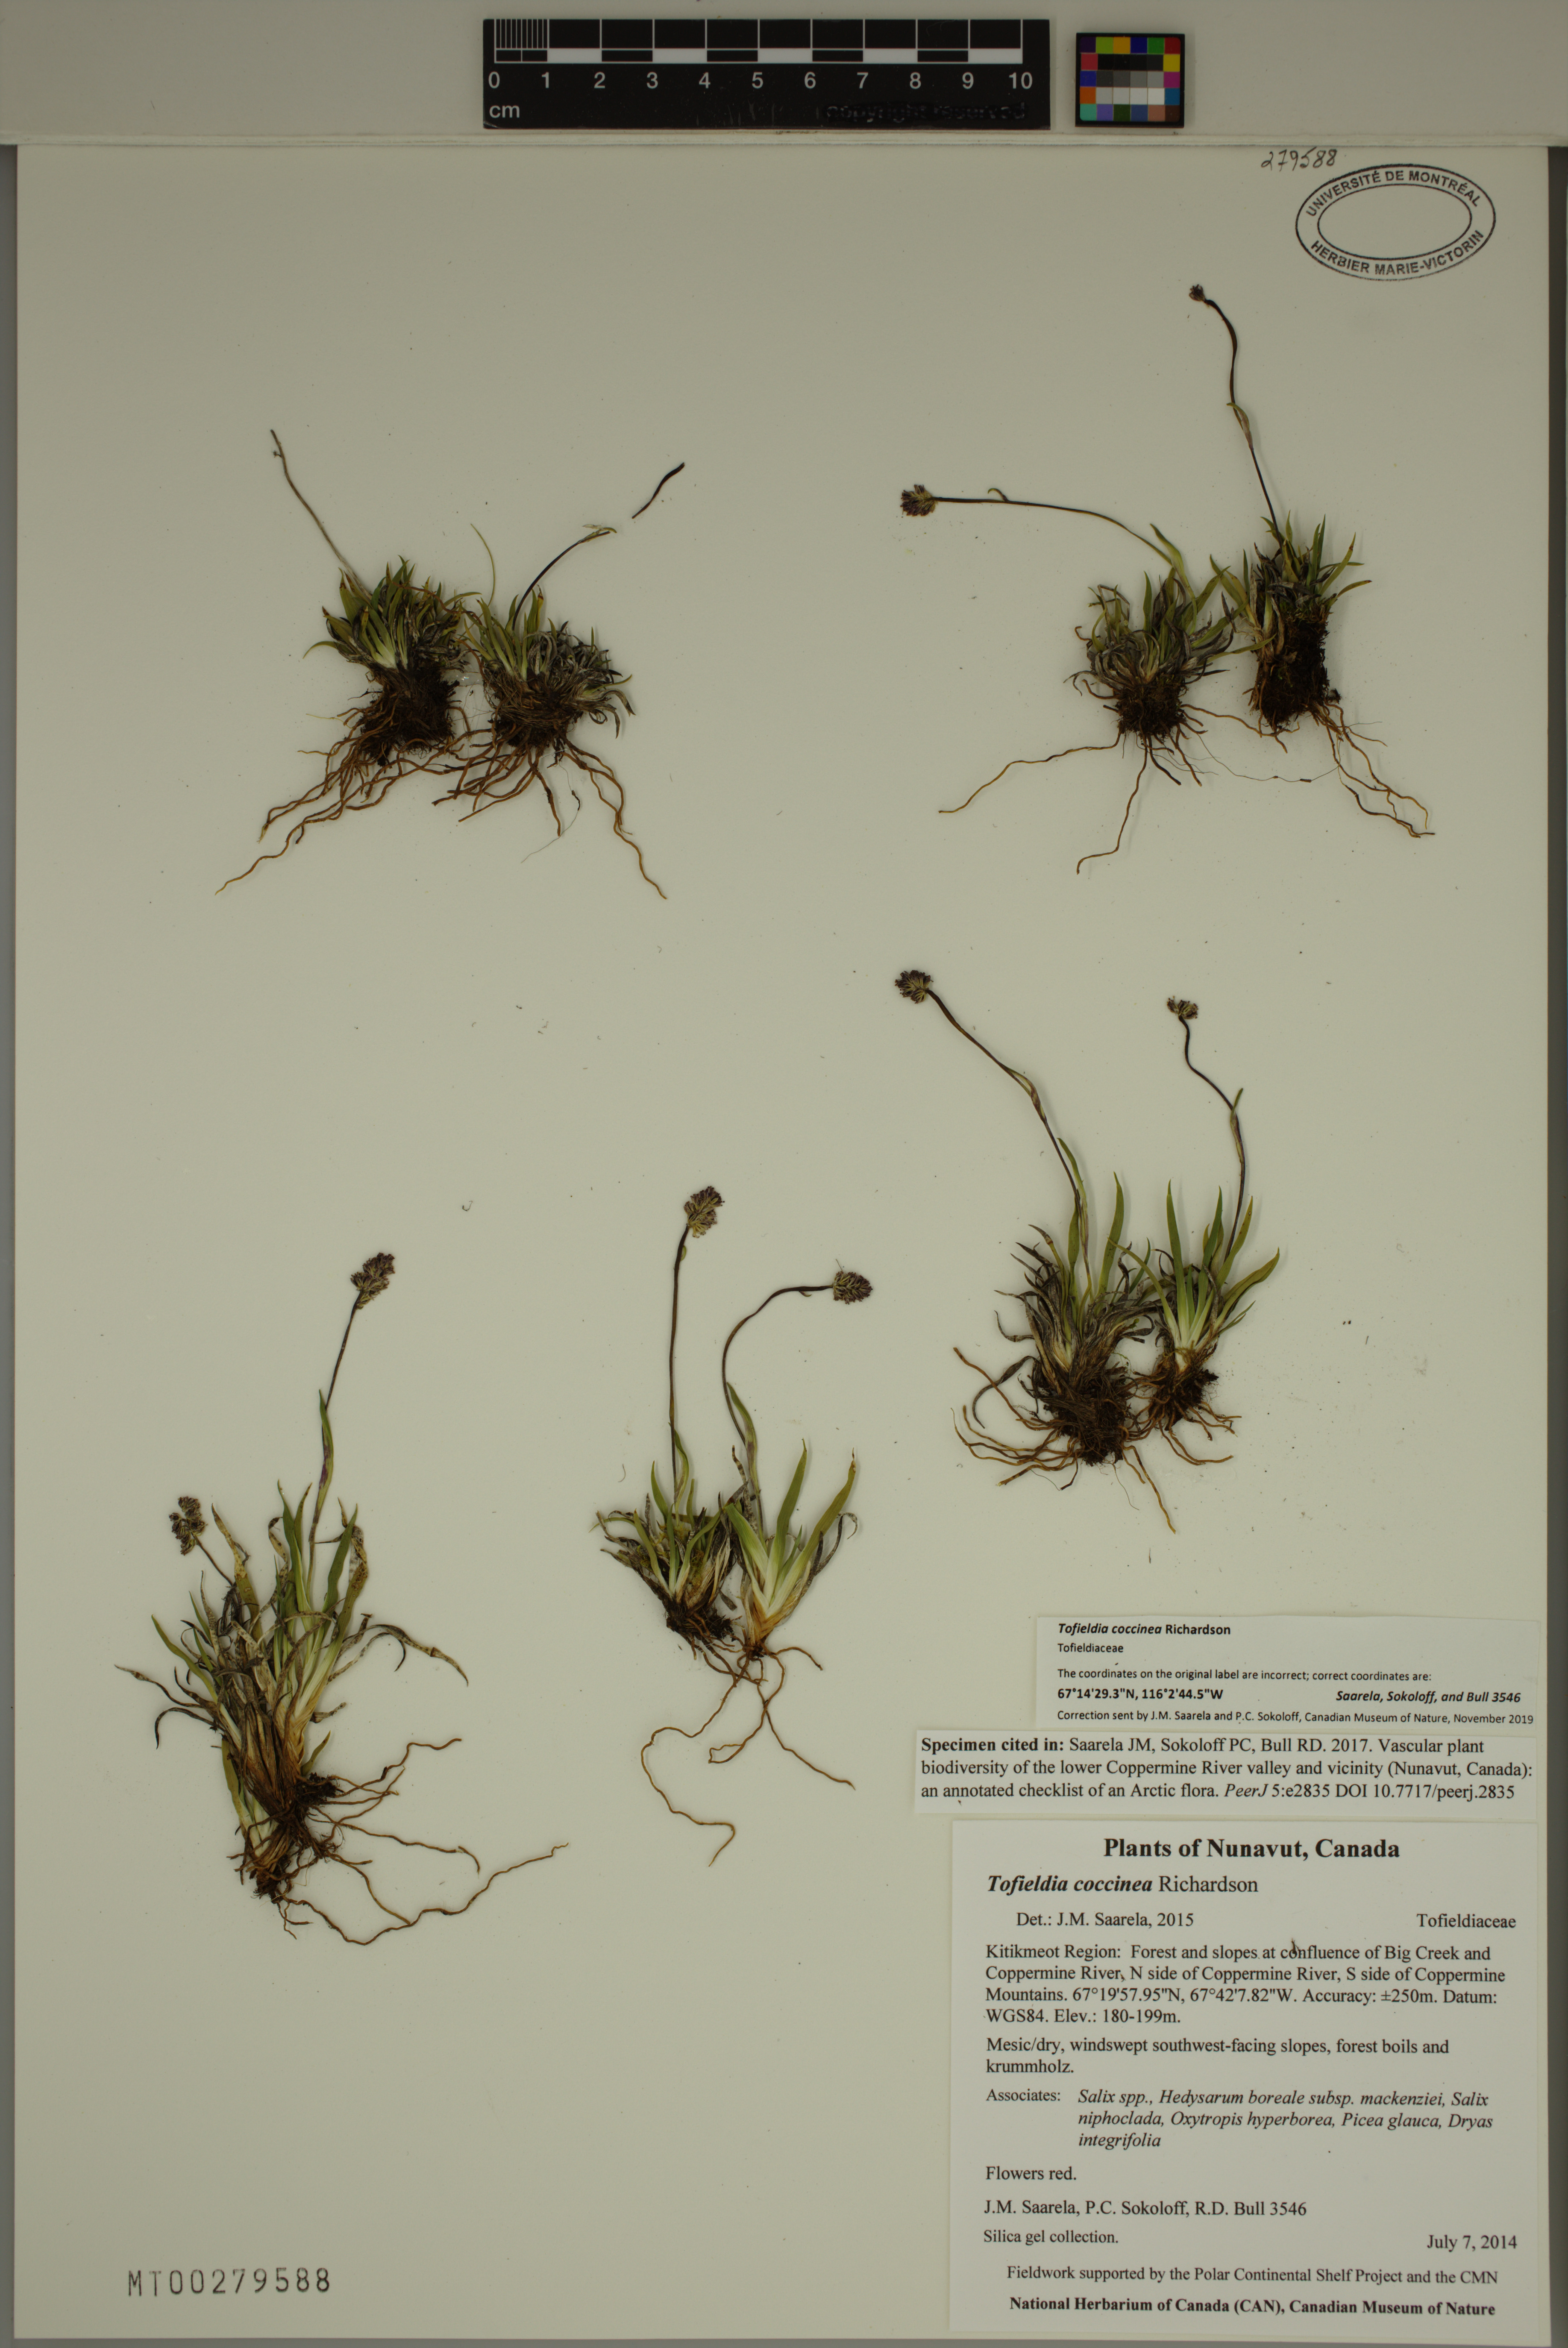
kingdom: Plantae
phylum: Tracheophyta
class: Liliopsida
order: Alismatales
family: Tofieldiaceae
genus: Tofieldia
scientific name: Tofieldia coccinea
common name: Northern false asphodel
